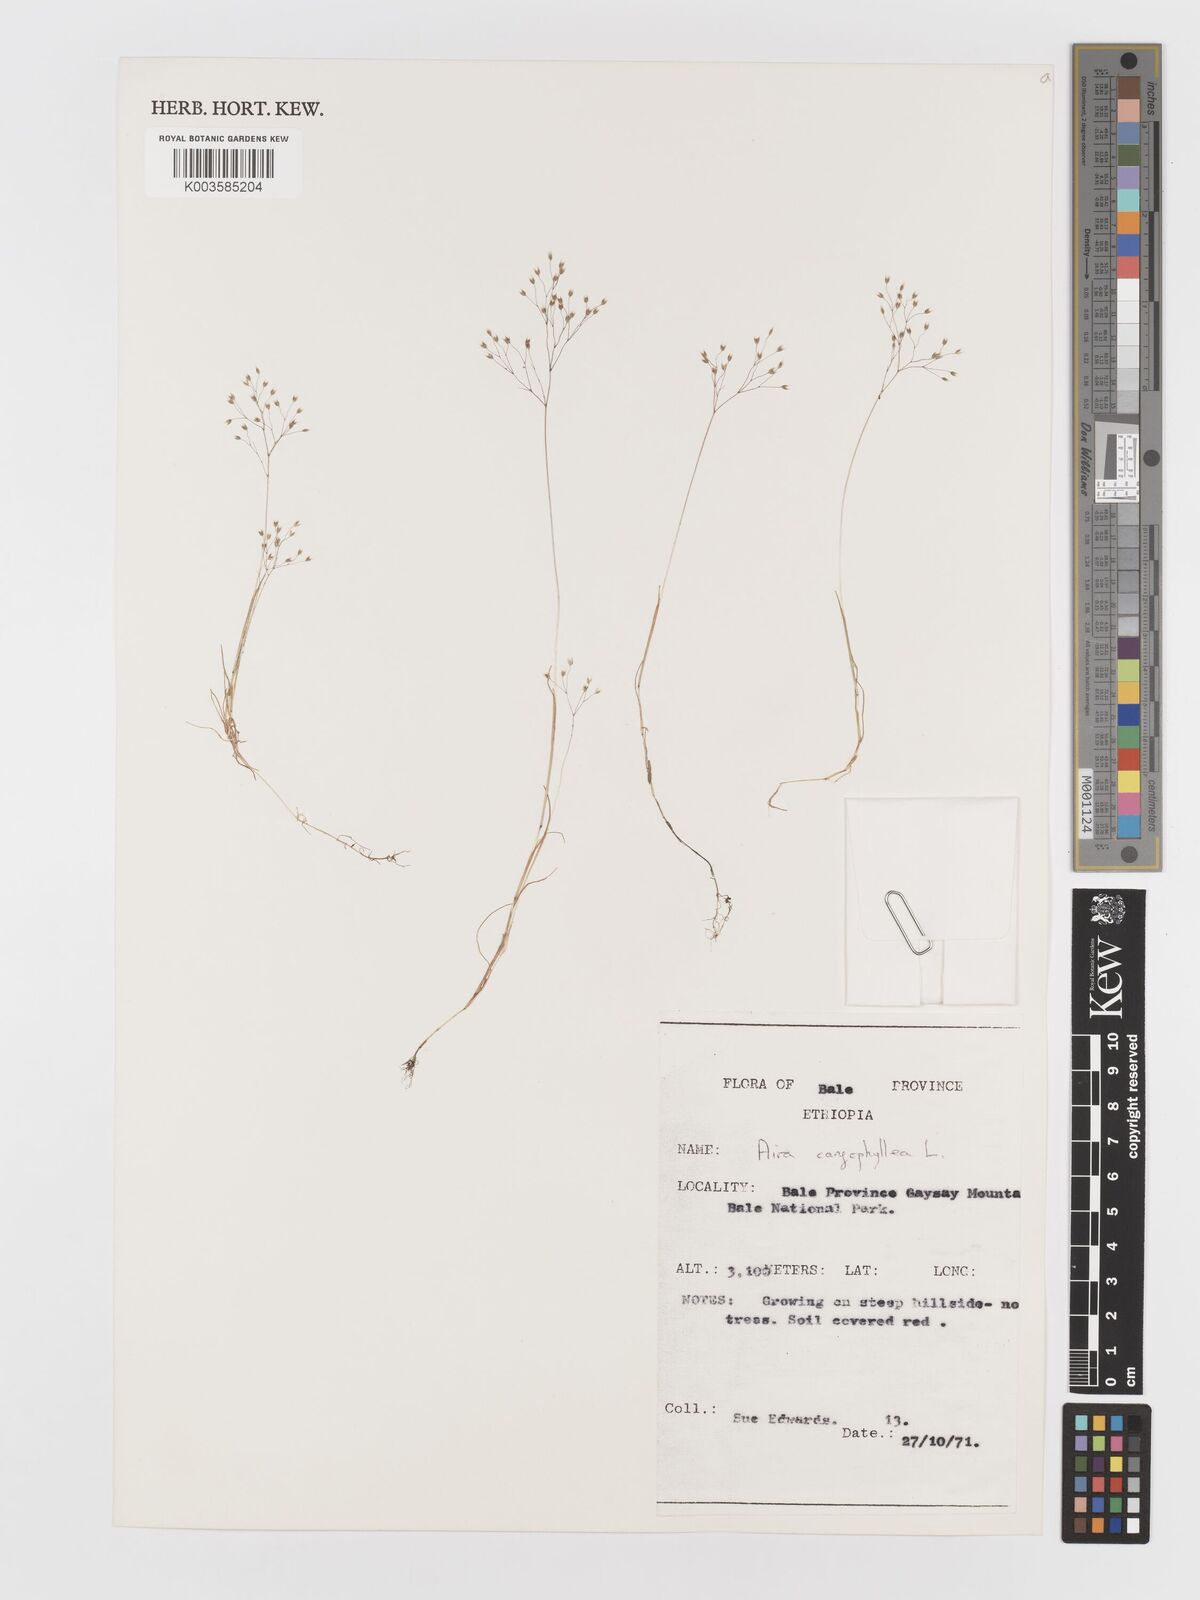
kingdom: Plantae
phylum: Tracheophyta
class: Liliopsida
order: Poales
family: Poaceae
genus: Aira
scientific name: Aira caryophyllea
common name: Silver hairgrass
